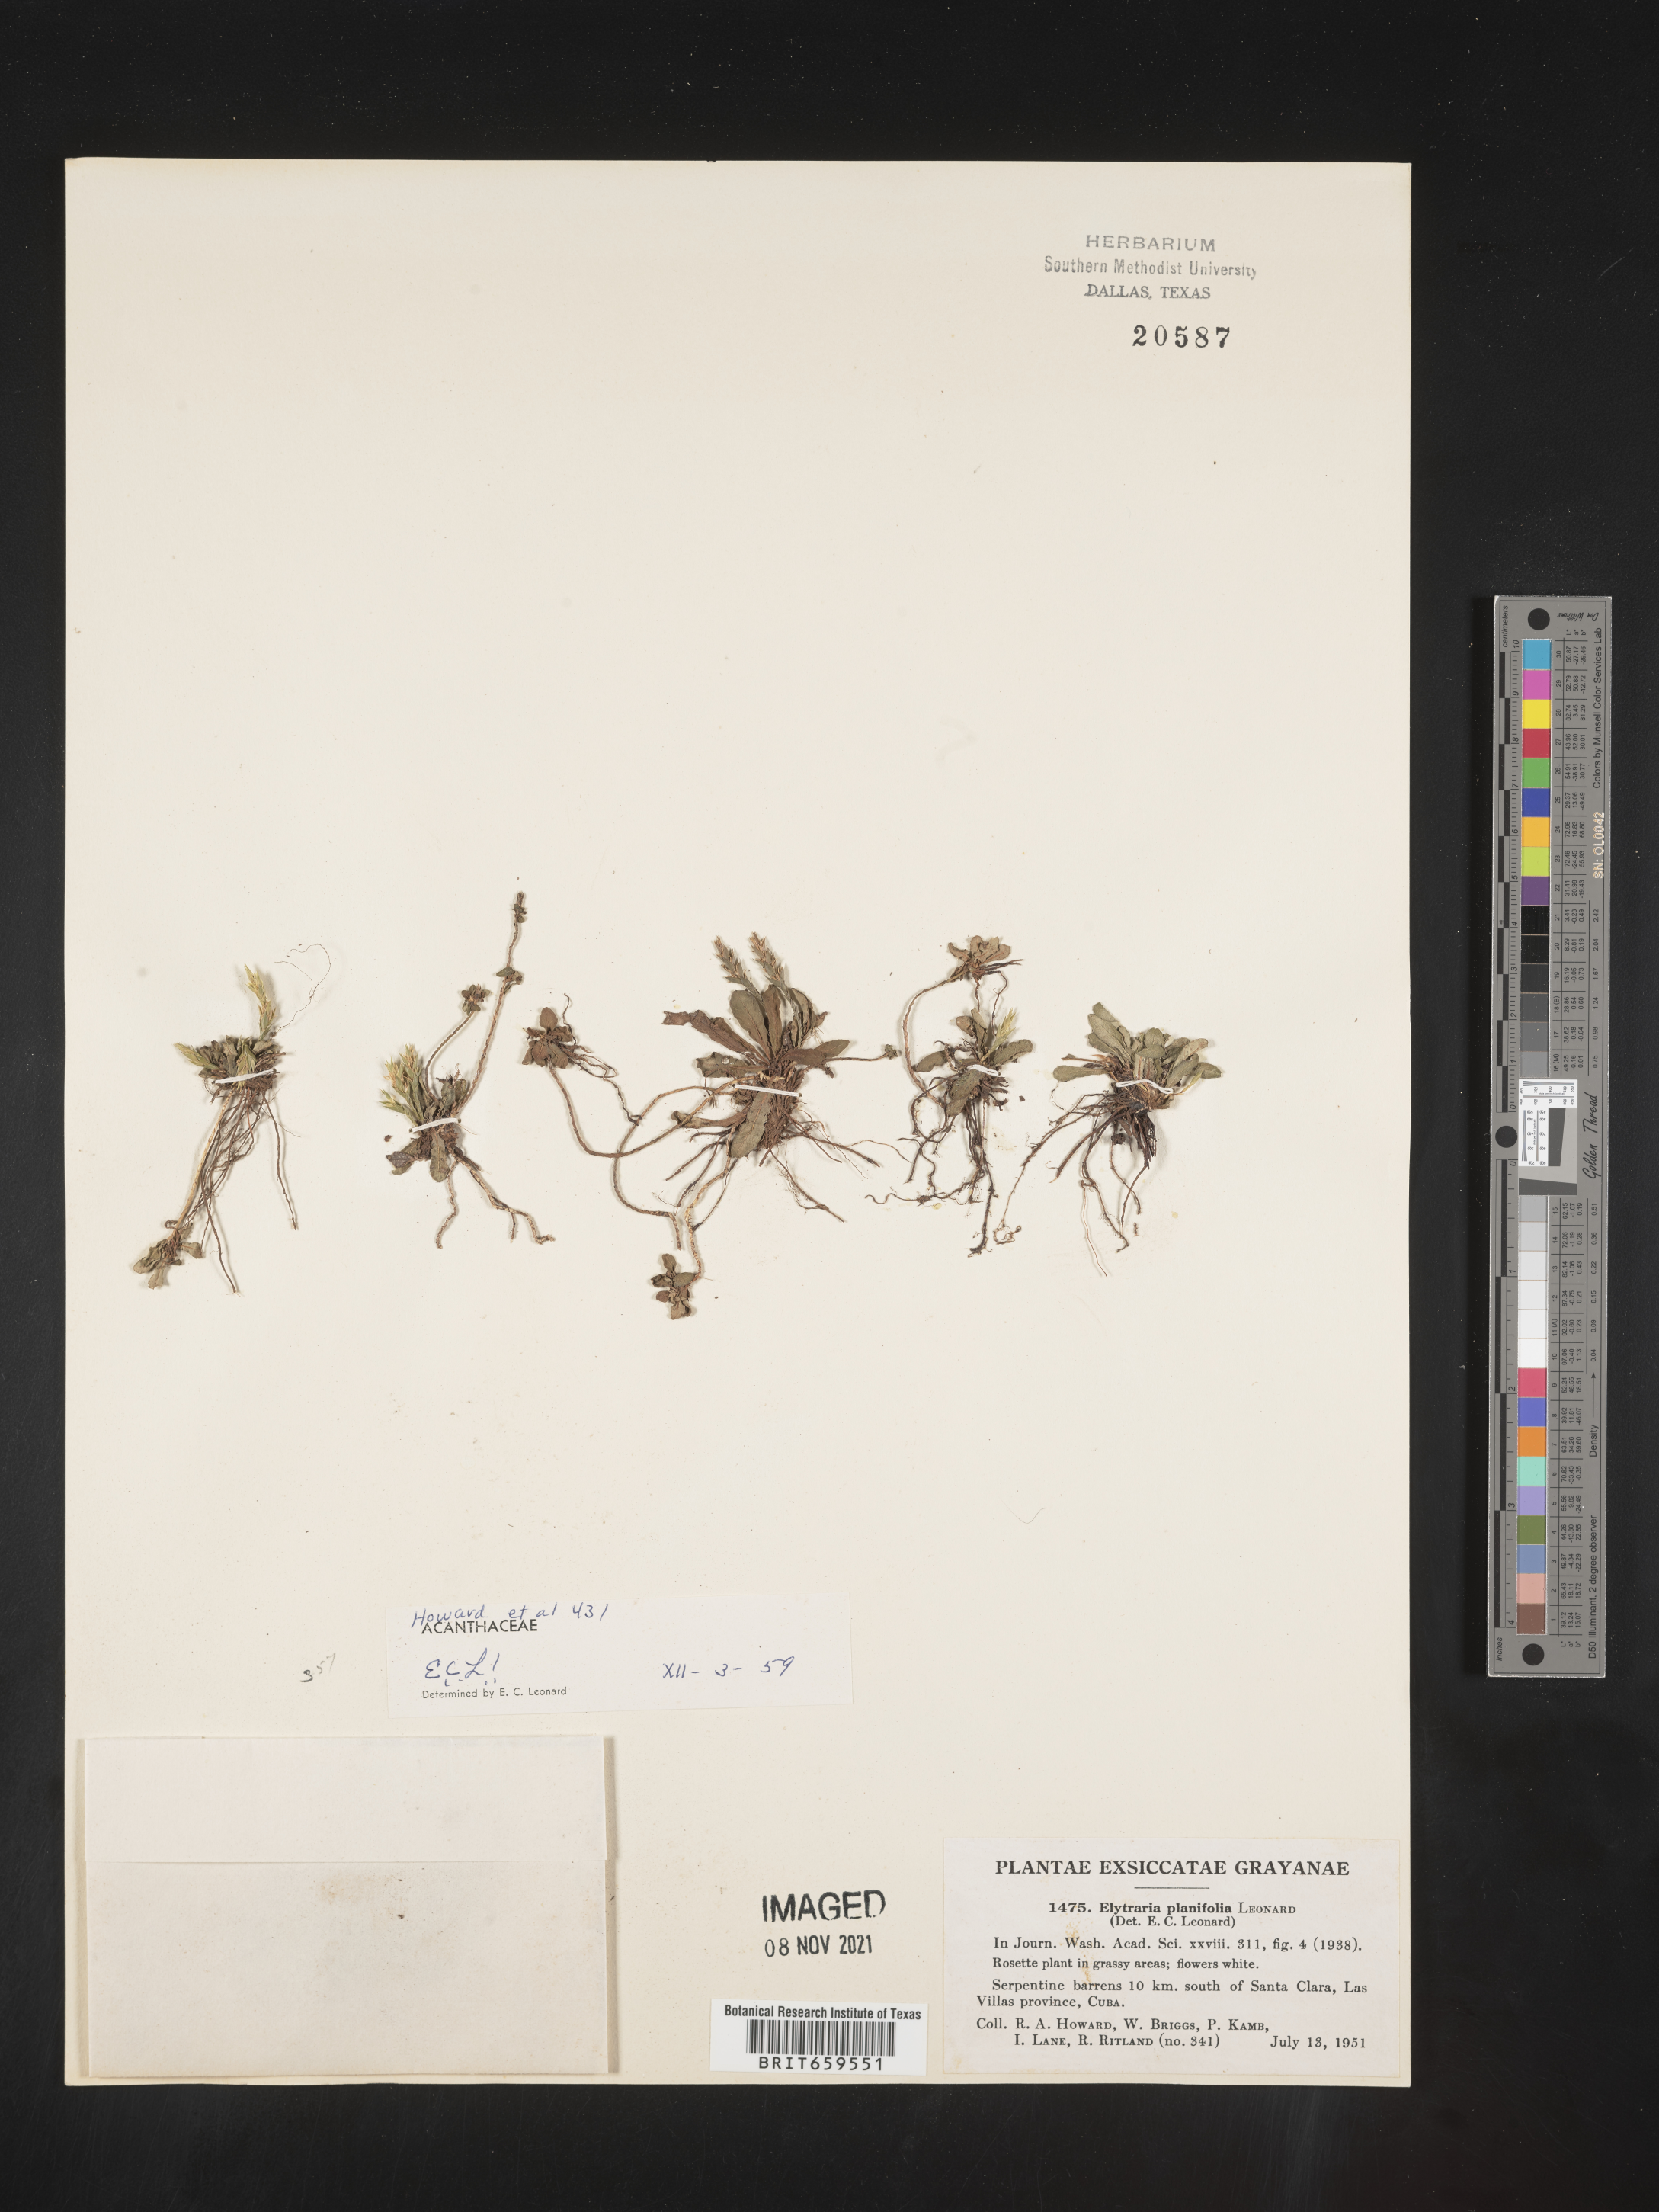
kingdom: Plantae
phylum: Tracheophyta
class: Magnoliopsida
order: Lamiales
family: Acanthaceae
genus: Elytraria
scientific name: Elytraria
